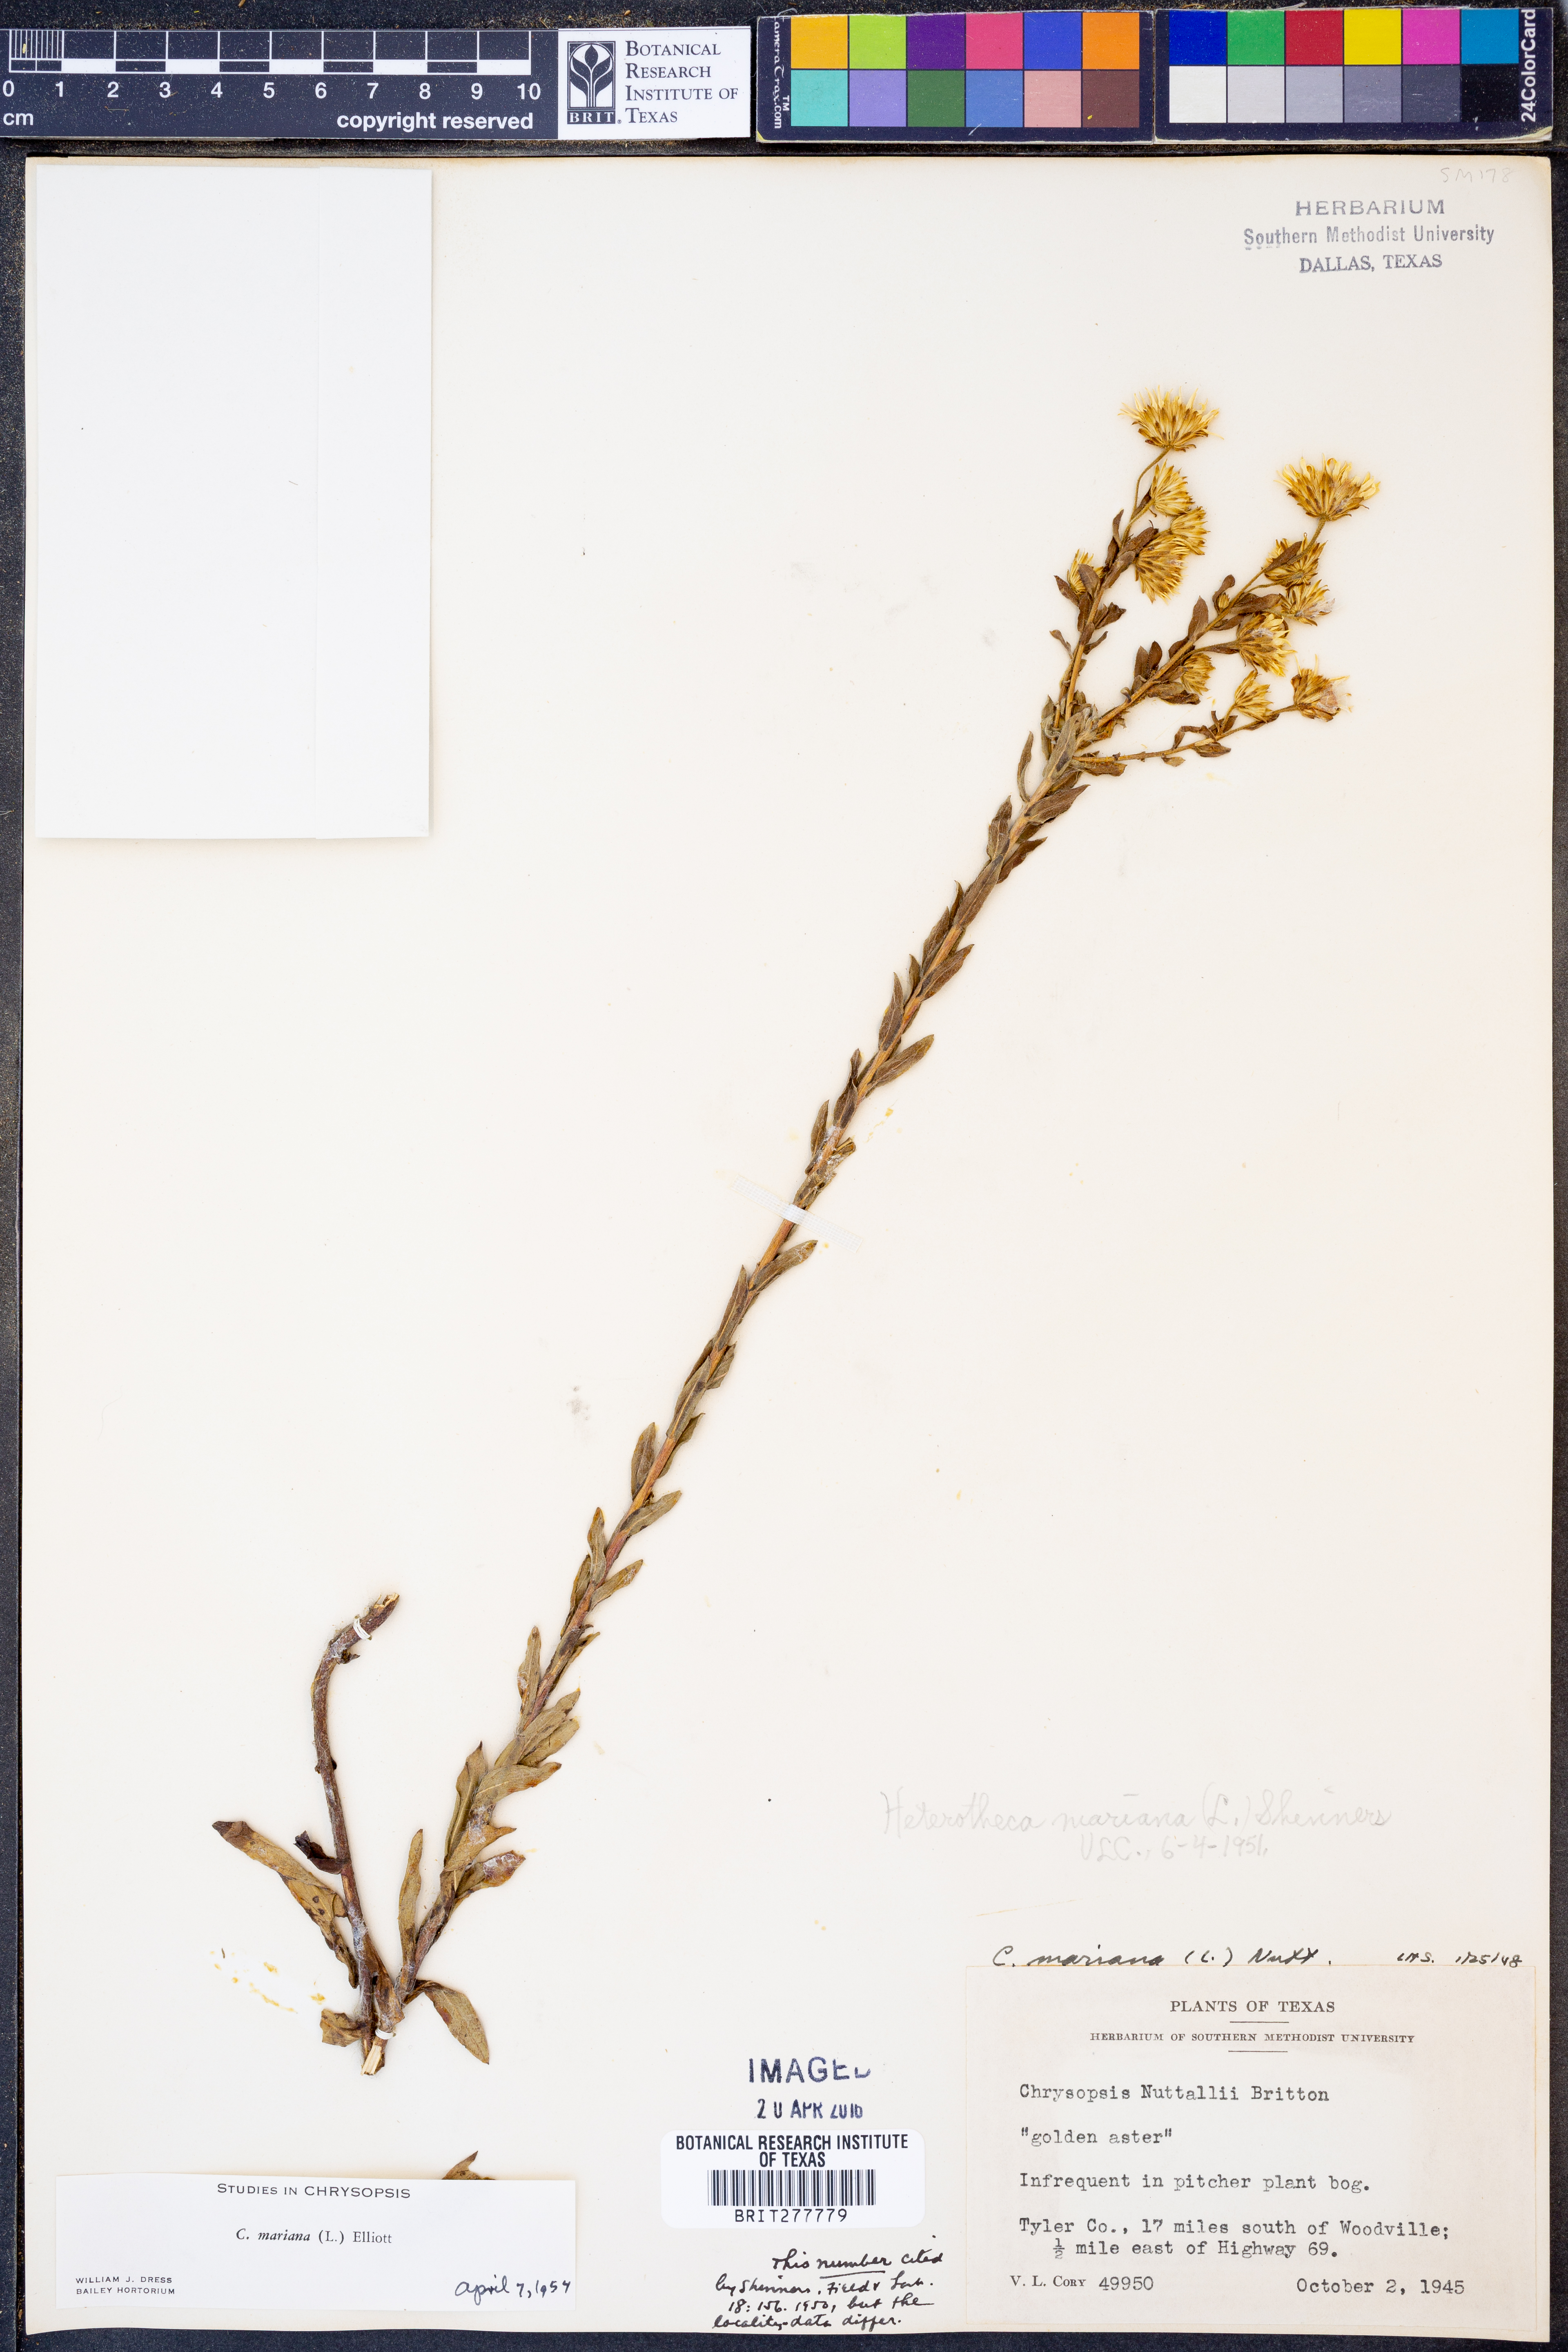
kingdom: Plantae
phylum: Tracheophyta
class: Magnoliopsida
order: Asterales
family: Asteraceae
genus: Chrysopsis
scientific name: Chrysopsis mariana
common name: Maryland golden-aster
